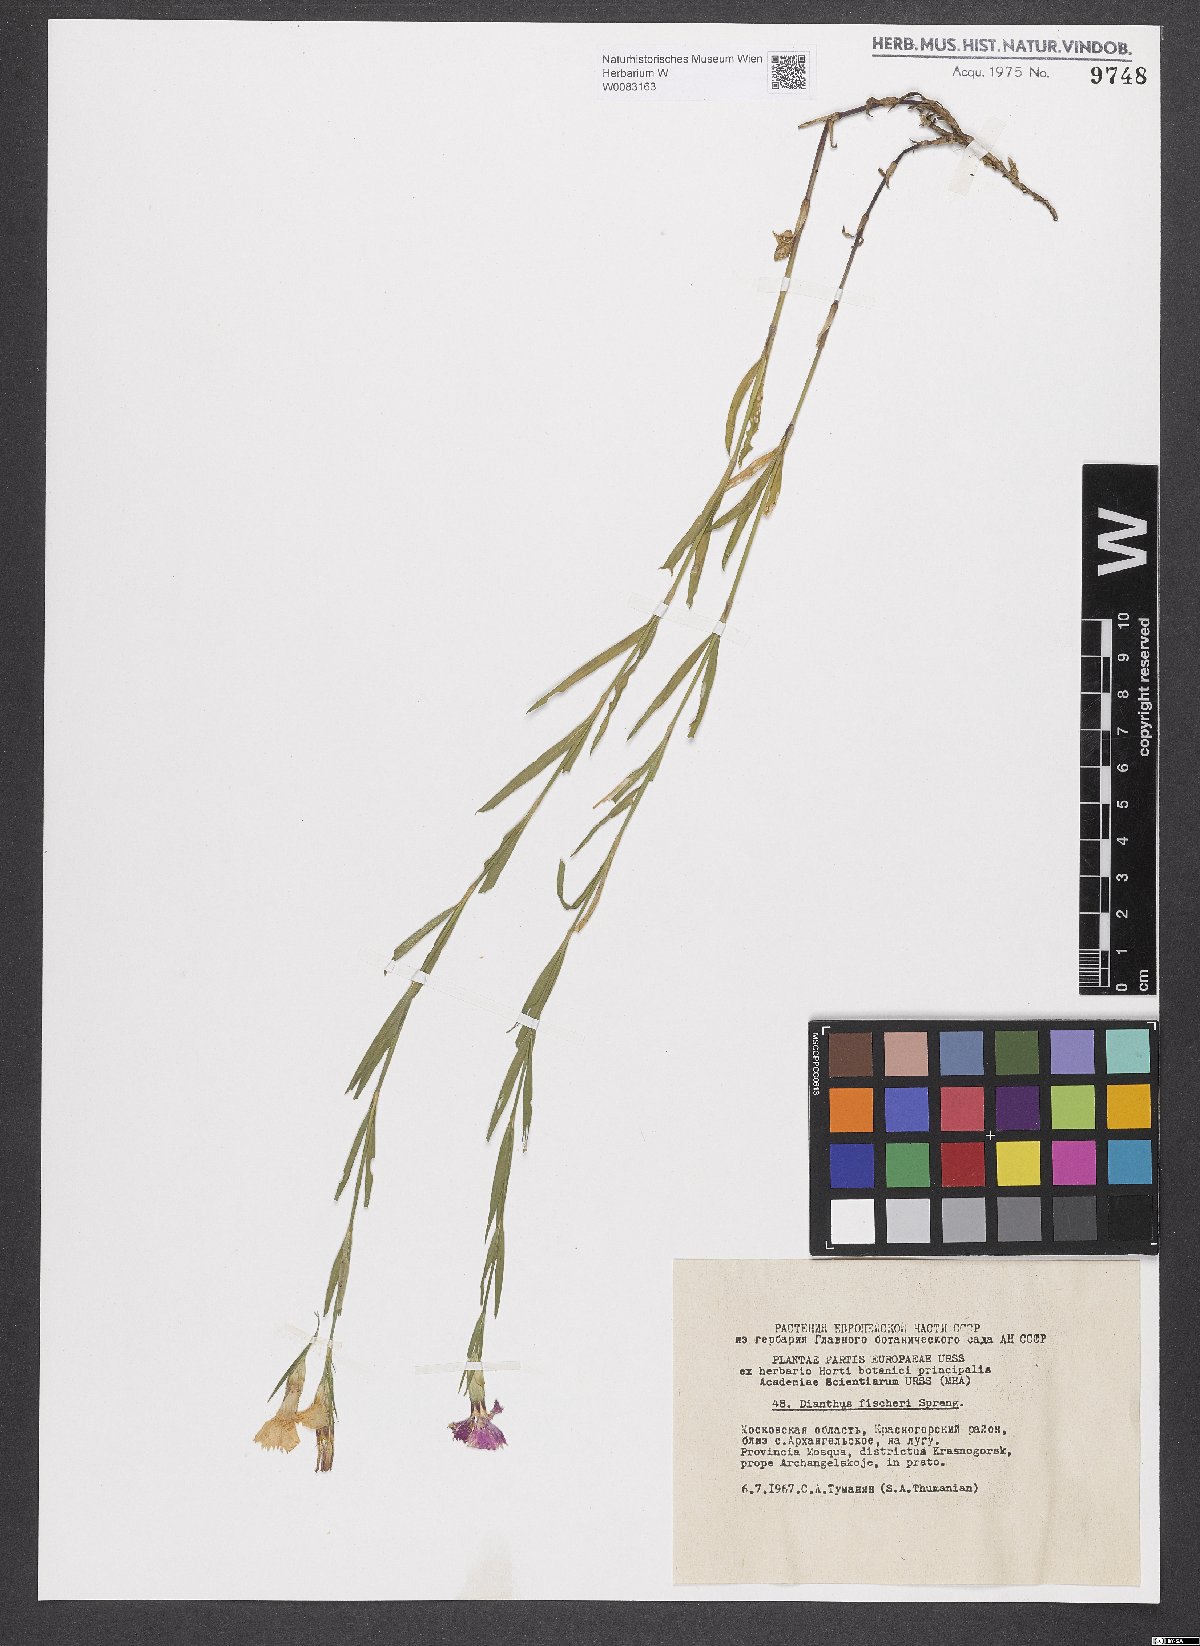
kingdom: Plantae
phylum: Tracheophyta
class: Magnoliopsida
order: Caryophyllales
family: Caryophyllaceae
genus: Dianthus
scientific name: Dianthus chinensis
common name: Rainbow pink
